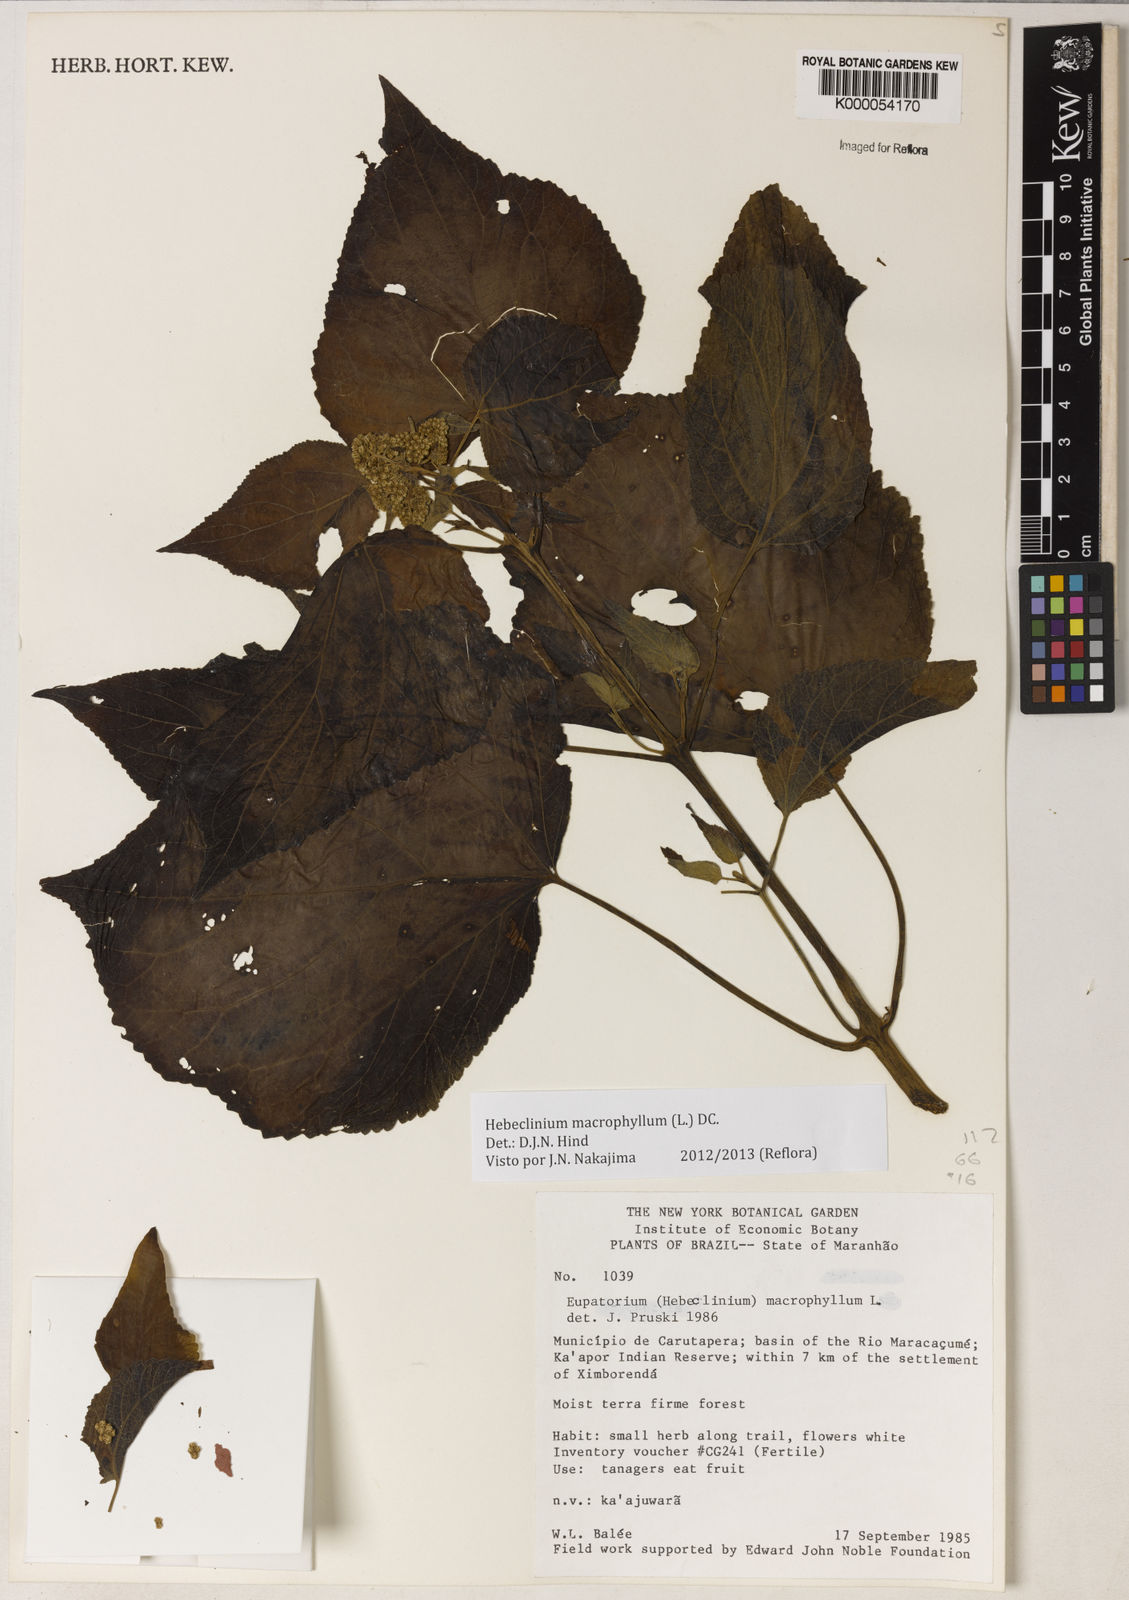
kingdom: Plantae
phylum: Tracheophyta
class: Magnoliopsida
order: Asterales
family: Asteraceae
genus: Hebeclinium
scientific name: Hebeclinium macrophyllum
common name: Largeleaf thoroughwort
